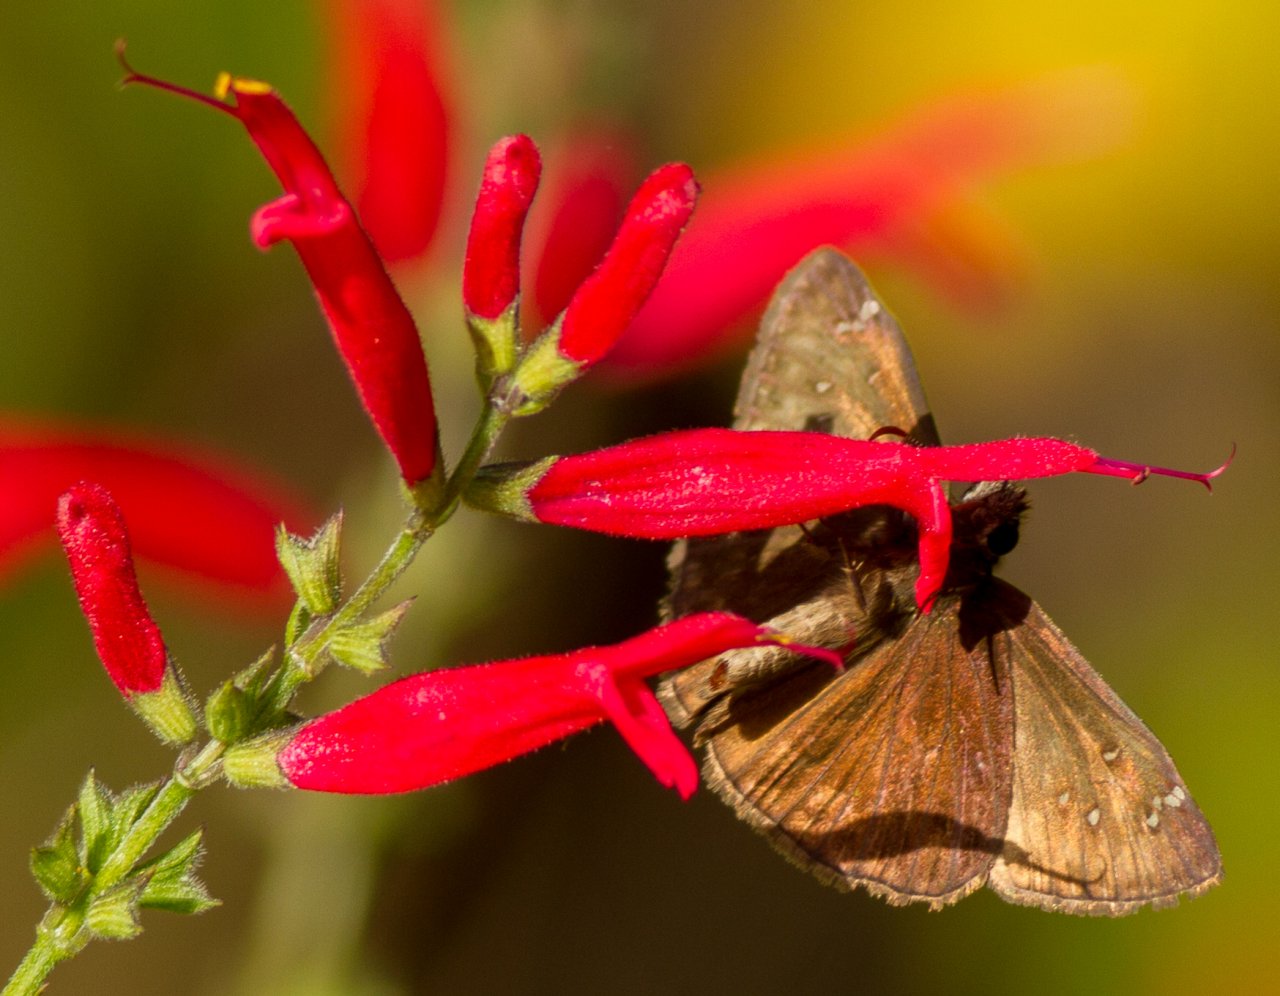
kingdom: Animalia
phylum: Arthropoda
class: Insecta
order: Lepidoptera
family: Hesperiidae
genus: Erynnis
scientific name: Erynnis zarucco
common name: Zarucco Duskywing
